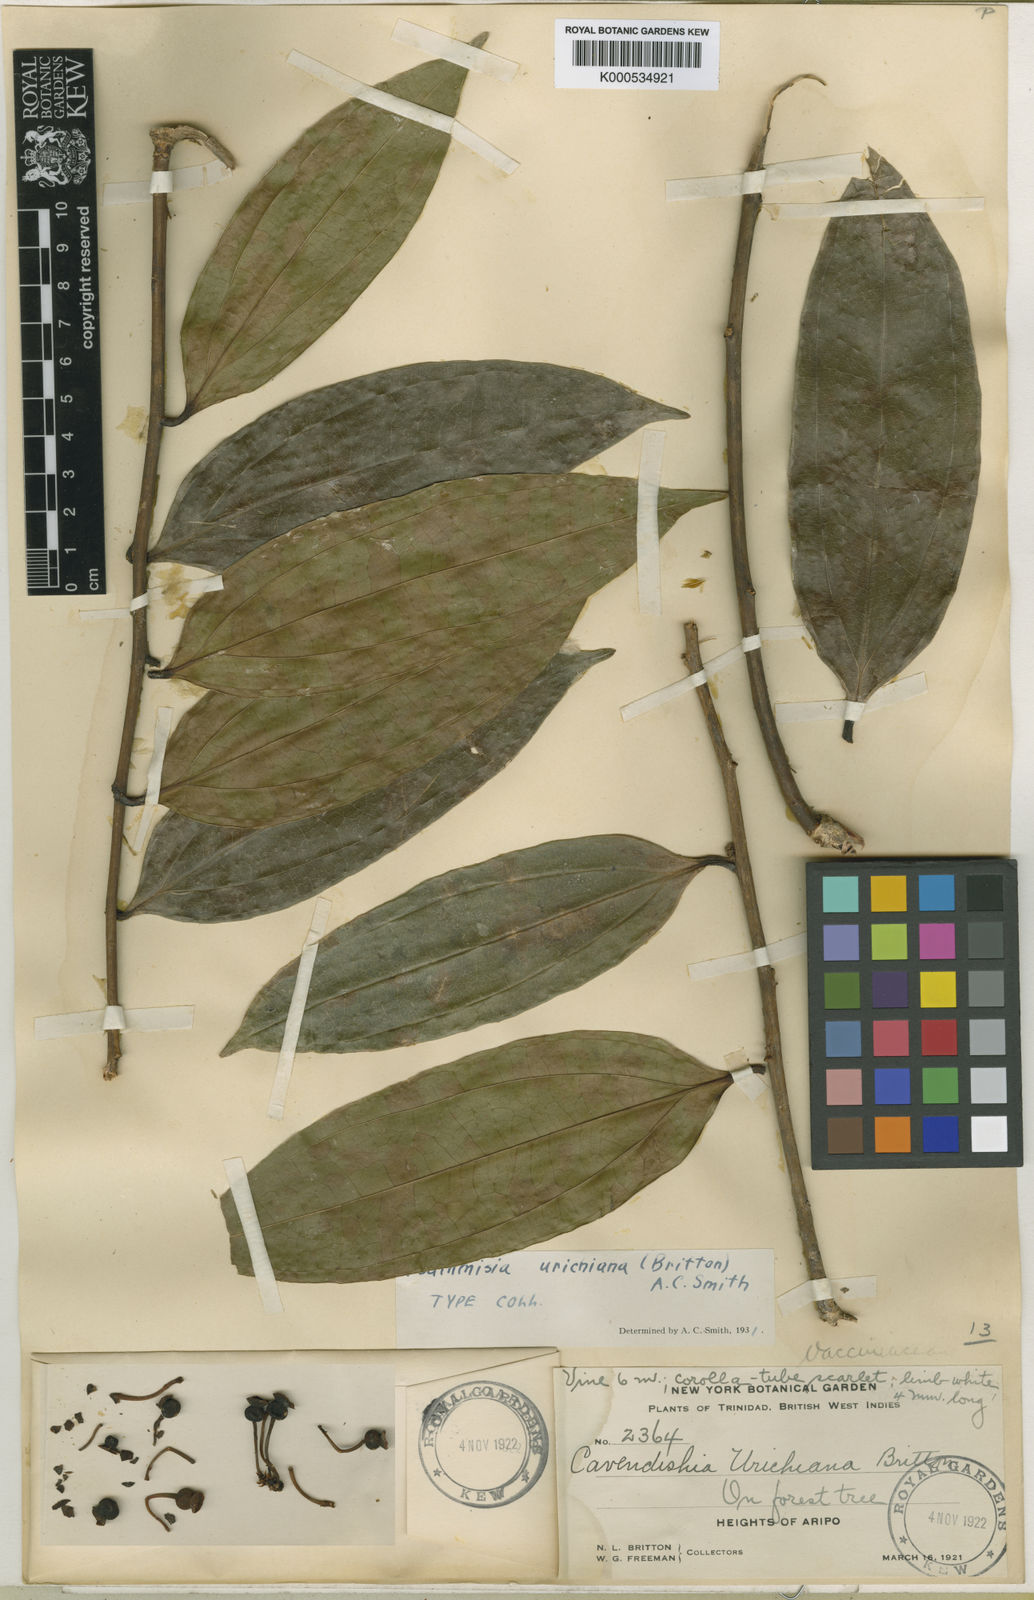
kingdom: Plantae
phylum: Tracheophyta
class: Magnoliopsida
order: Ericales
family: Ericaceae
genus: Psammisia
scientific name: Psammisia urichiana
